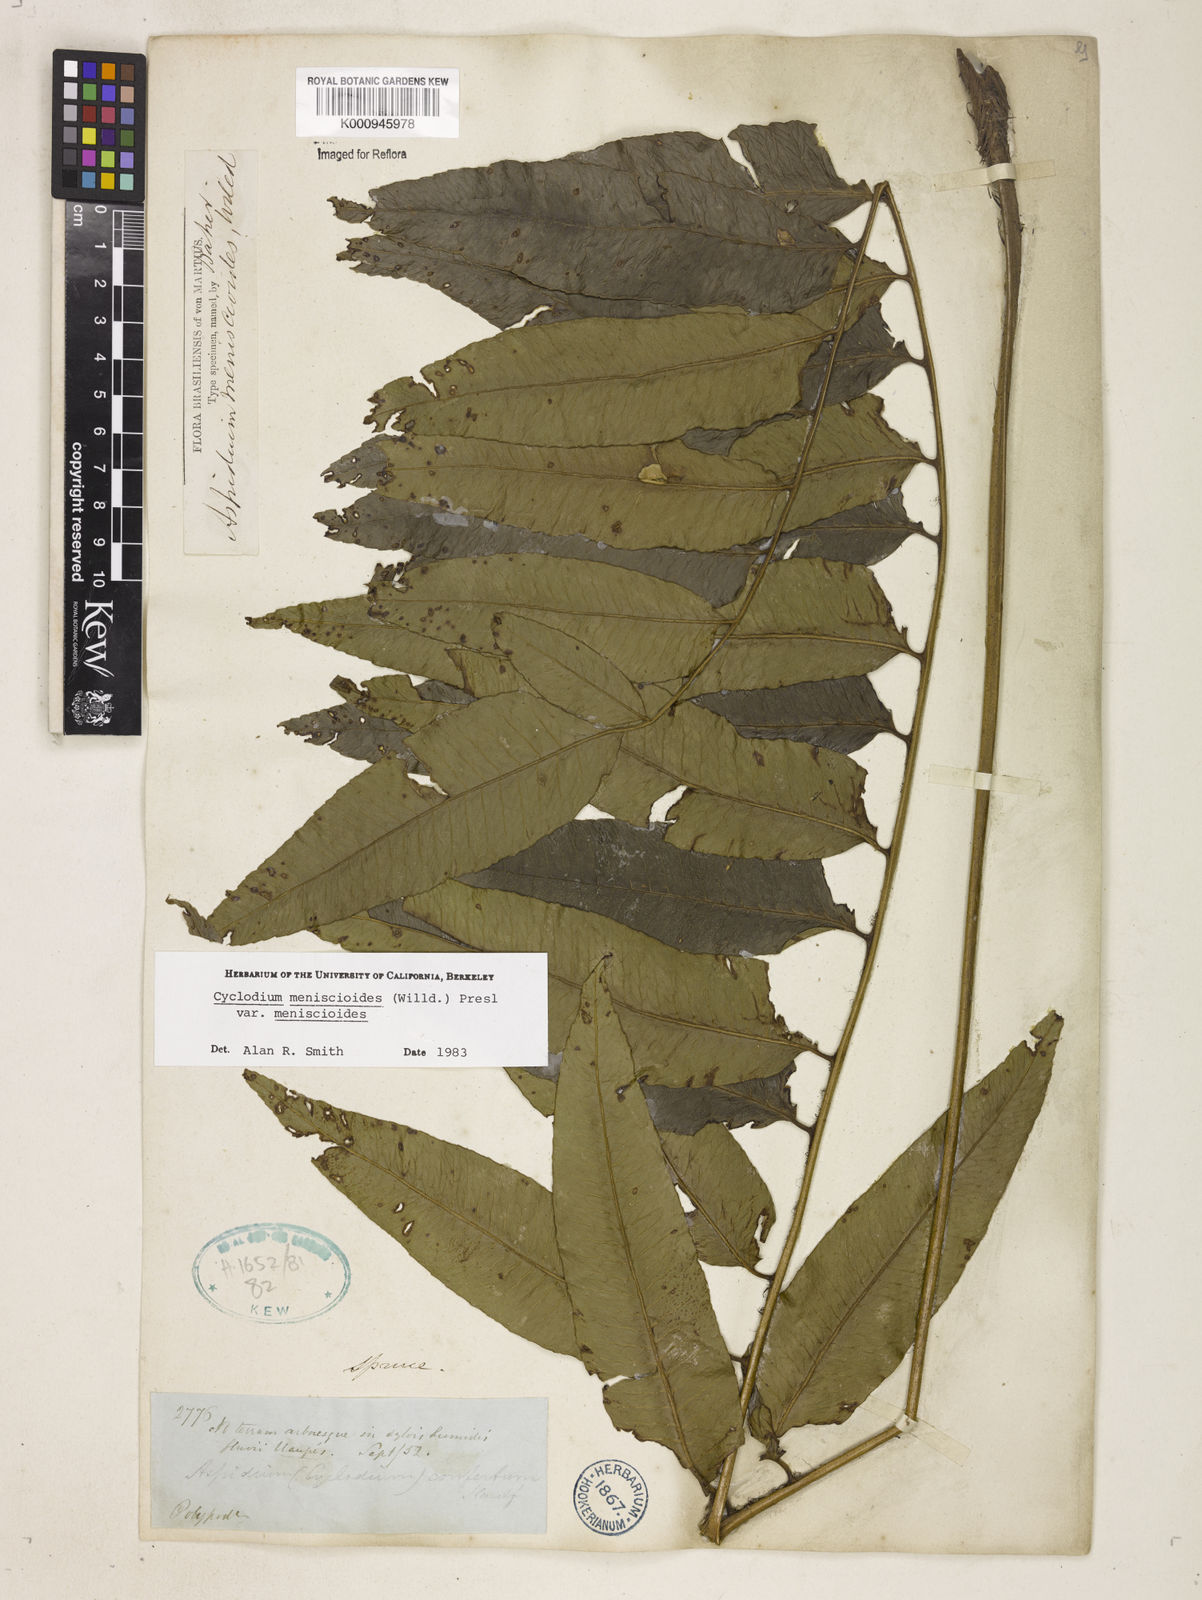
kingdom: Plantae
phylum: Tracheophyta
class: Polypodiopsida
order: Polypodiales
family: Dryopteridaceae
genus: Cyclodium
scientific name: Cyclodium meniscioides
